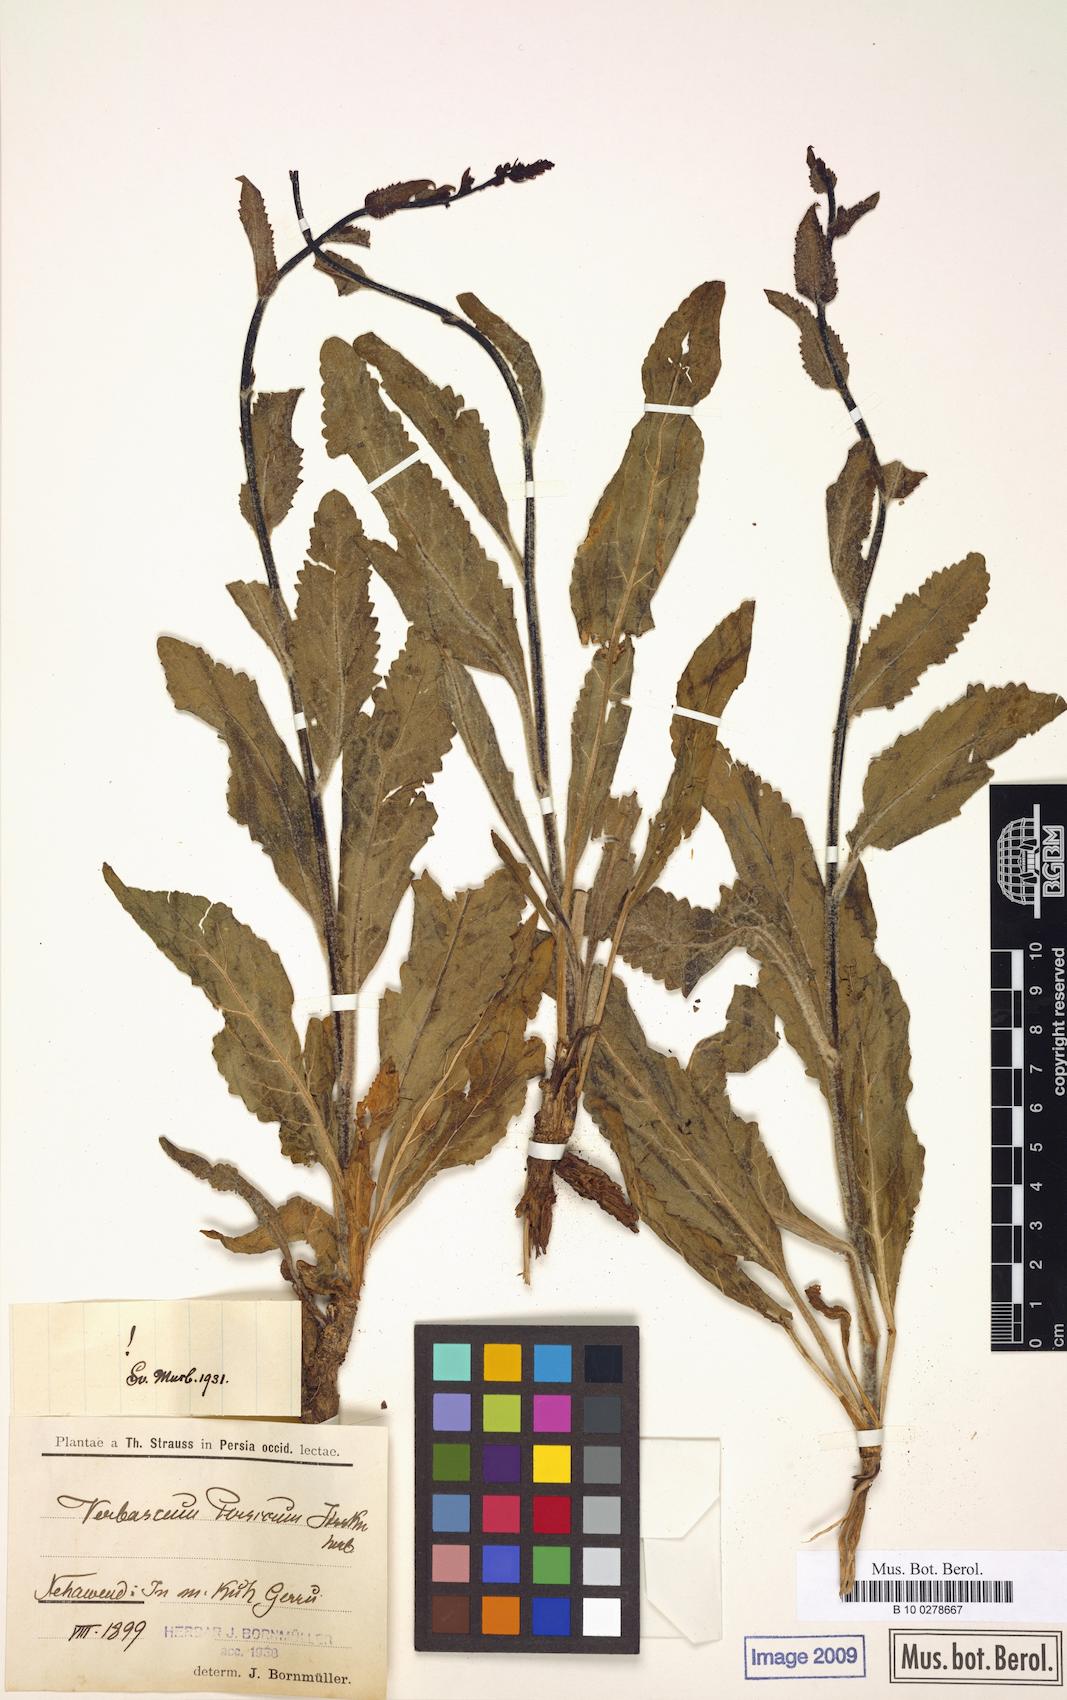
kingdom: Plantae
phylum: Tracheophyta
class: Magnoliopsida
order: Lamiales
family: Scrophulariaceae
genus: Verbascum
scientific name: Verbascum haussknechtianum
